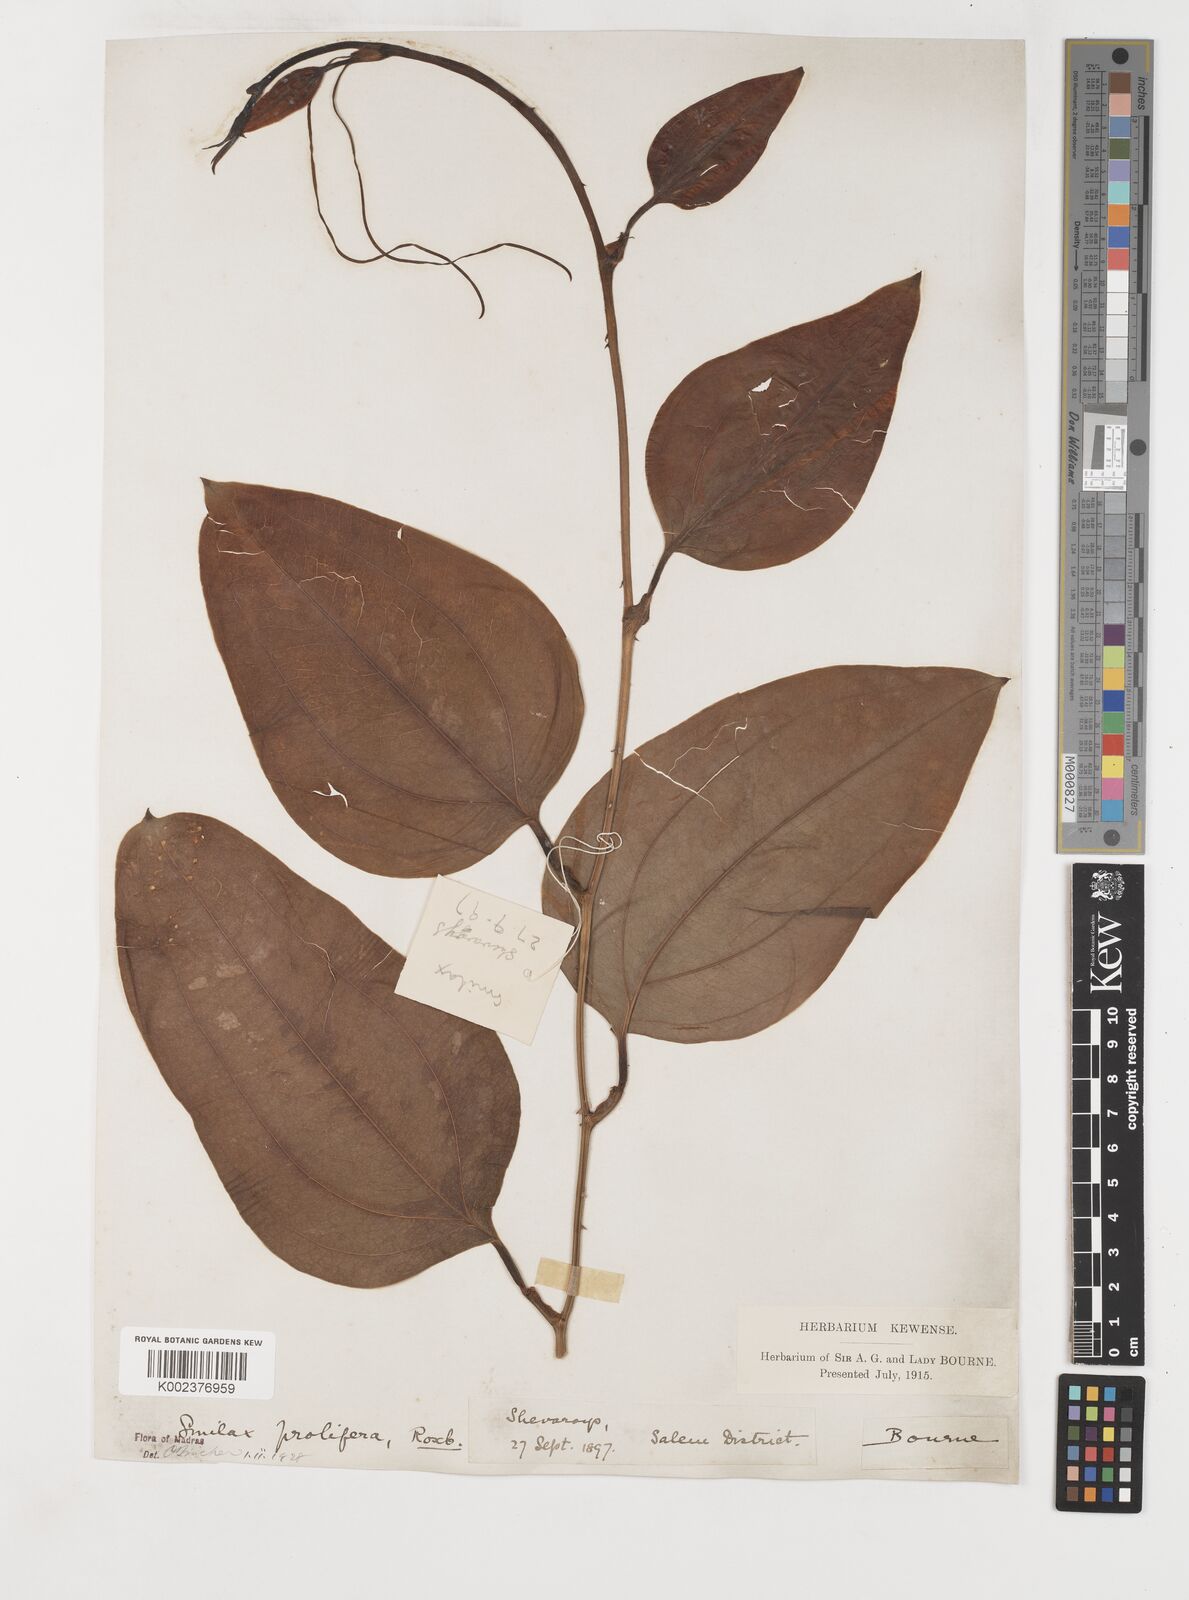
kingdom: Plantae
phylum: Tracheophyta
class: Liliopsida
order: Liliales
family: Smilacaceae
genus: Smilax
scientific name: Smilax
